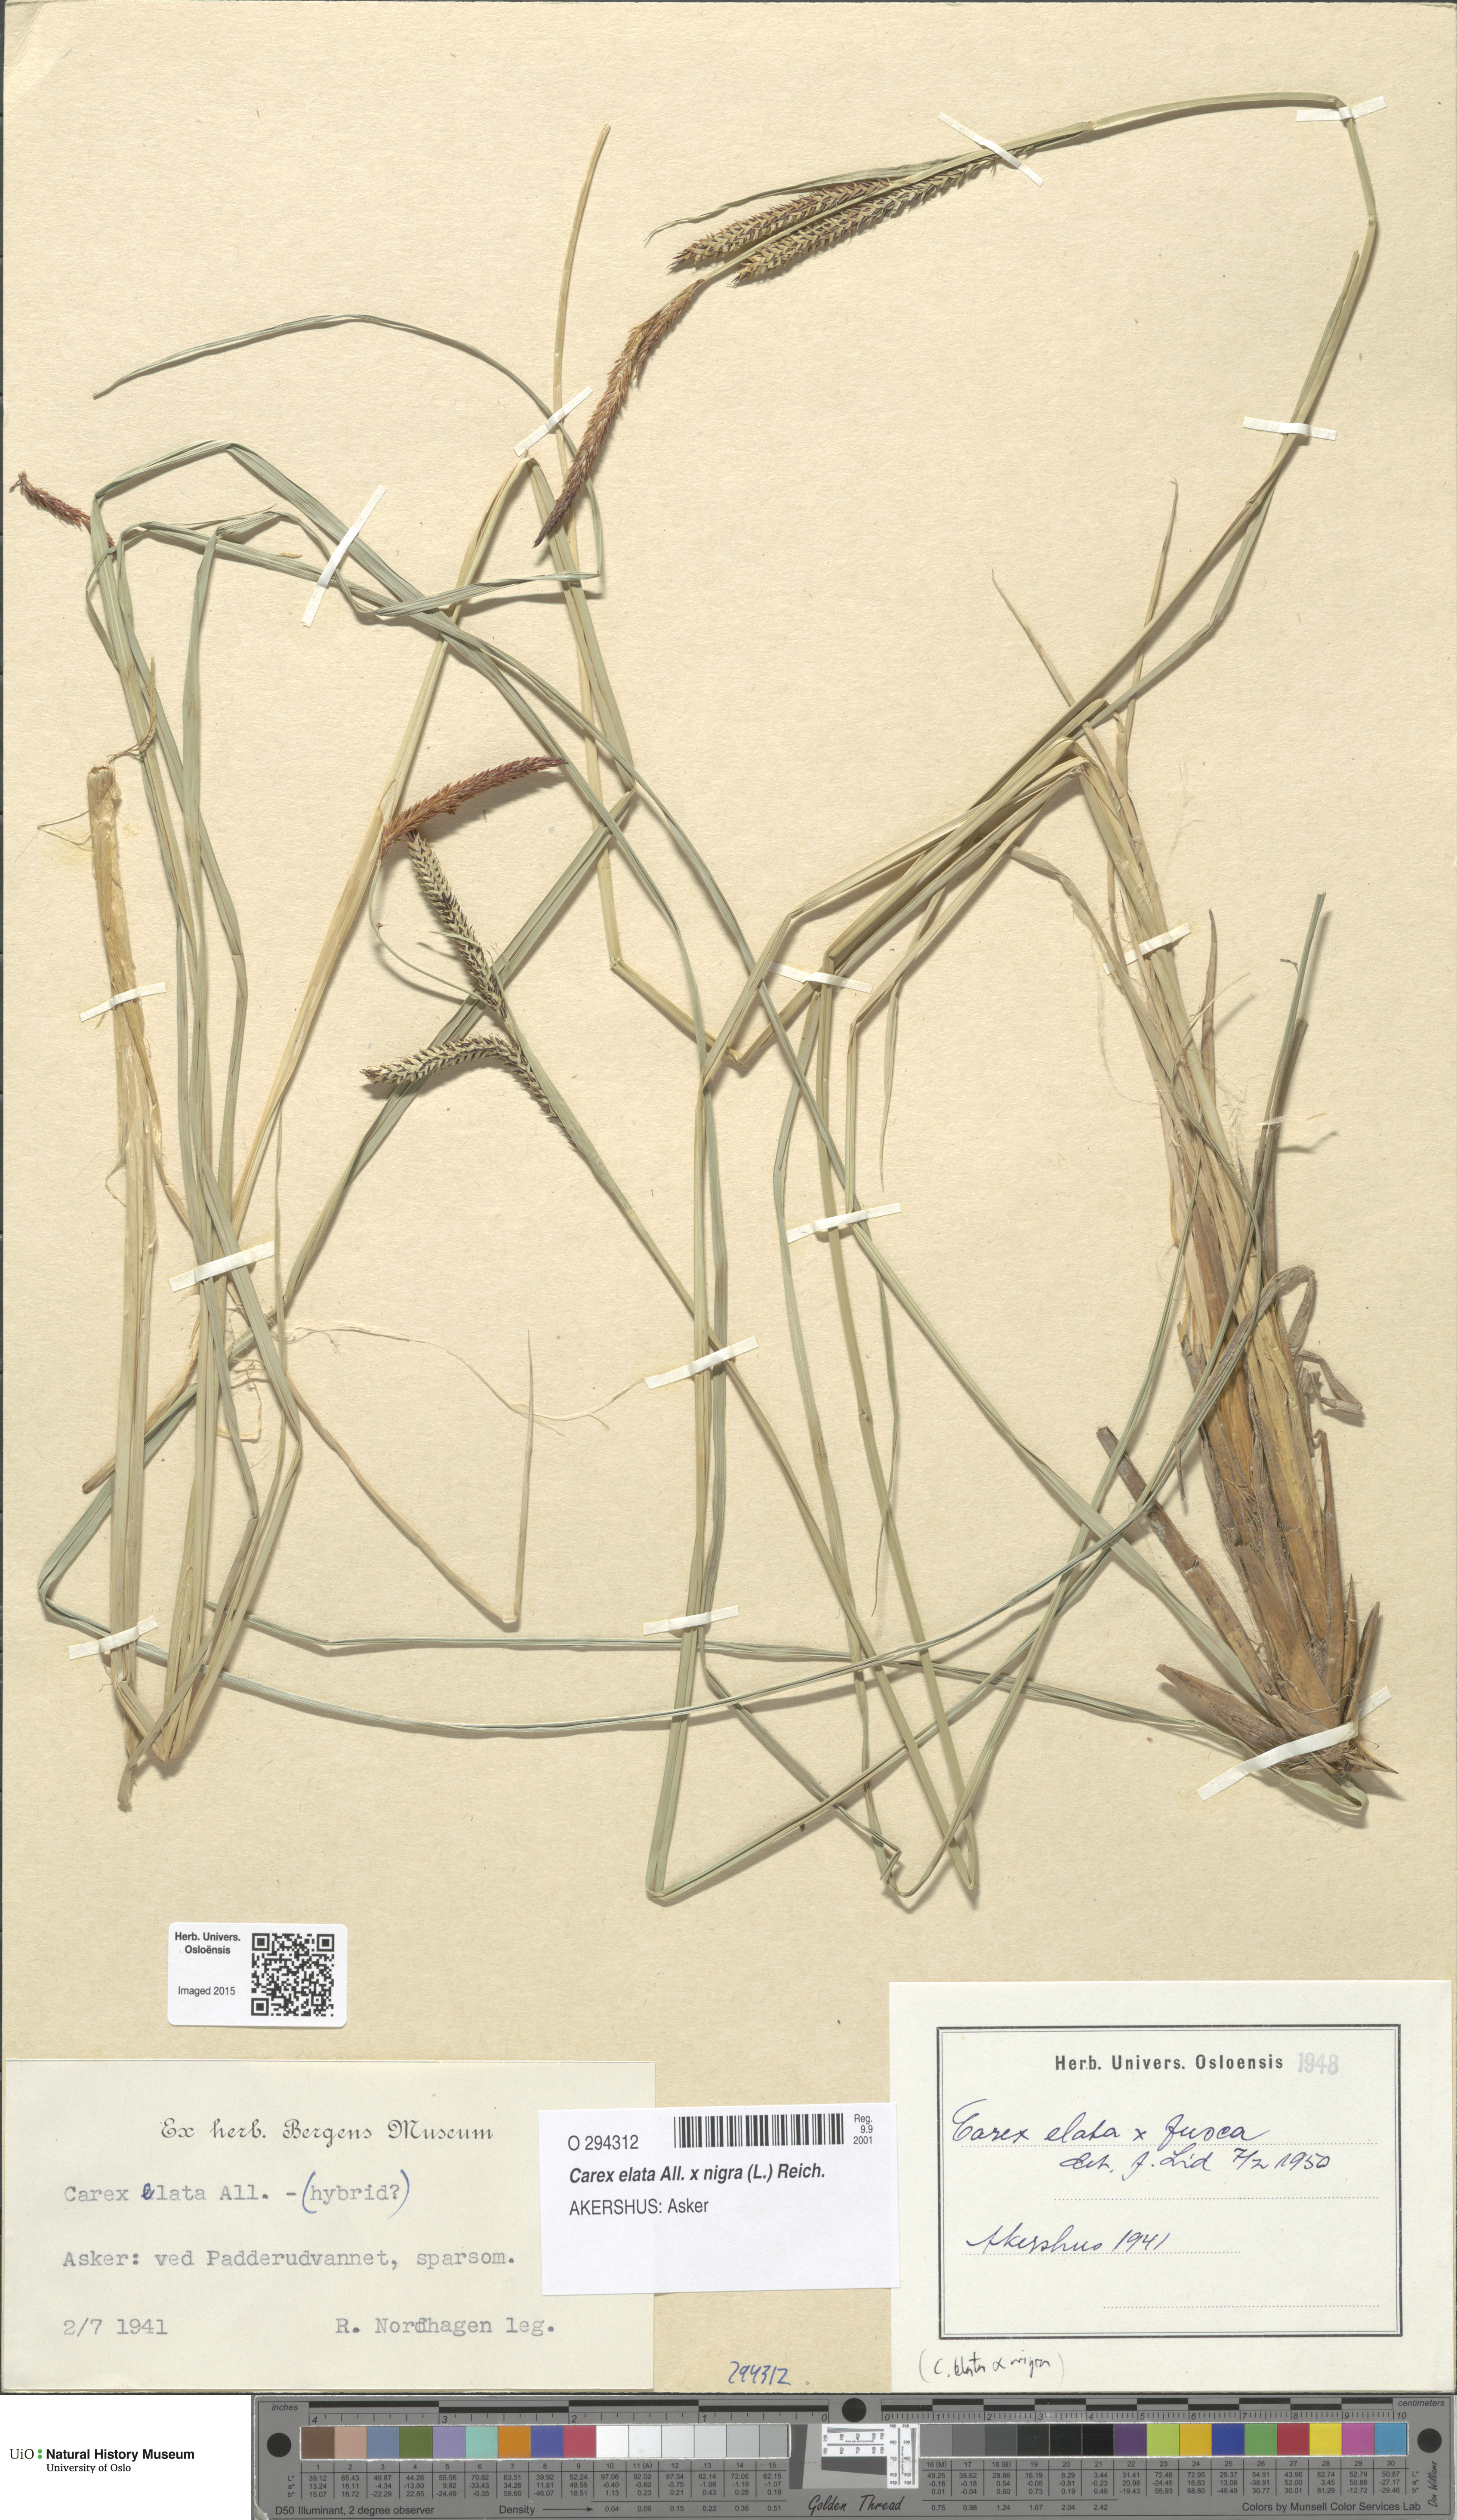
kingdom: Plantae
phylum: Tracheophyta
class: Liliopsida
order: Poales
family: Cyperaceae
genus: Carex
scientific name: Carex
